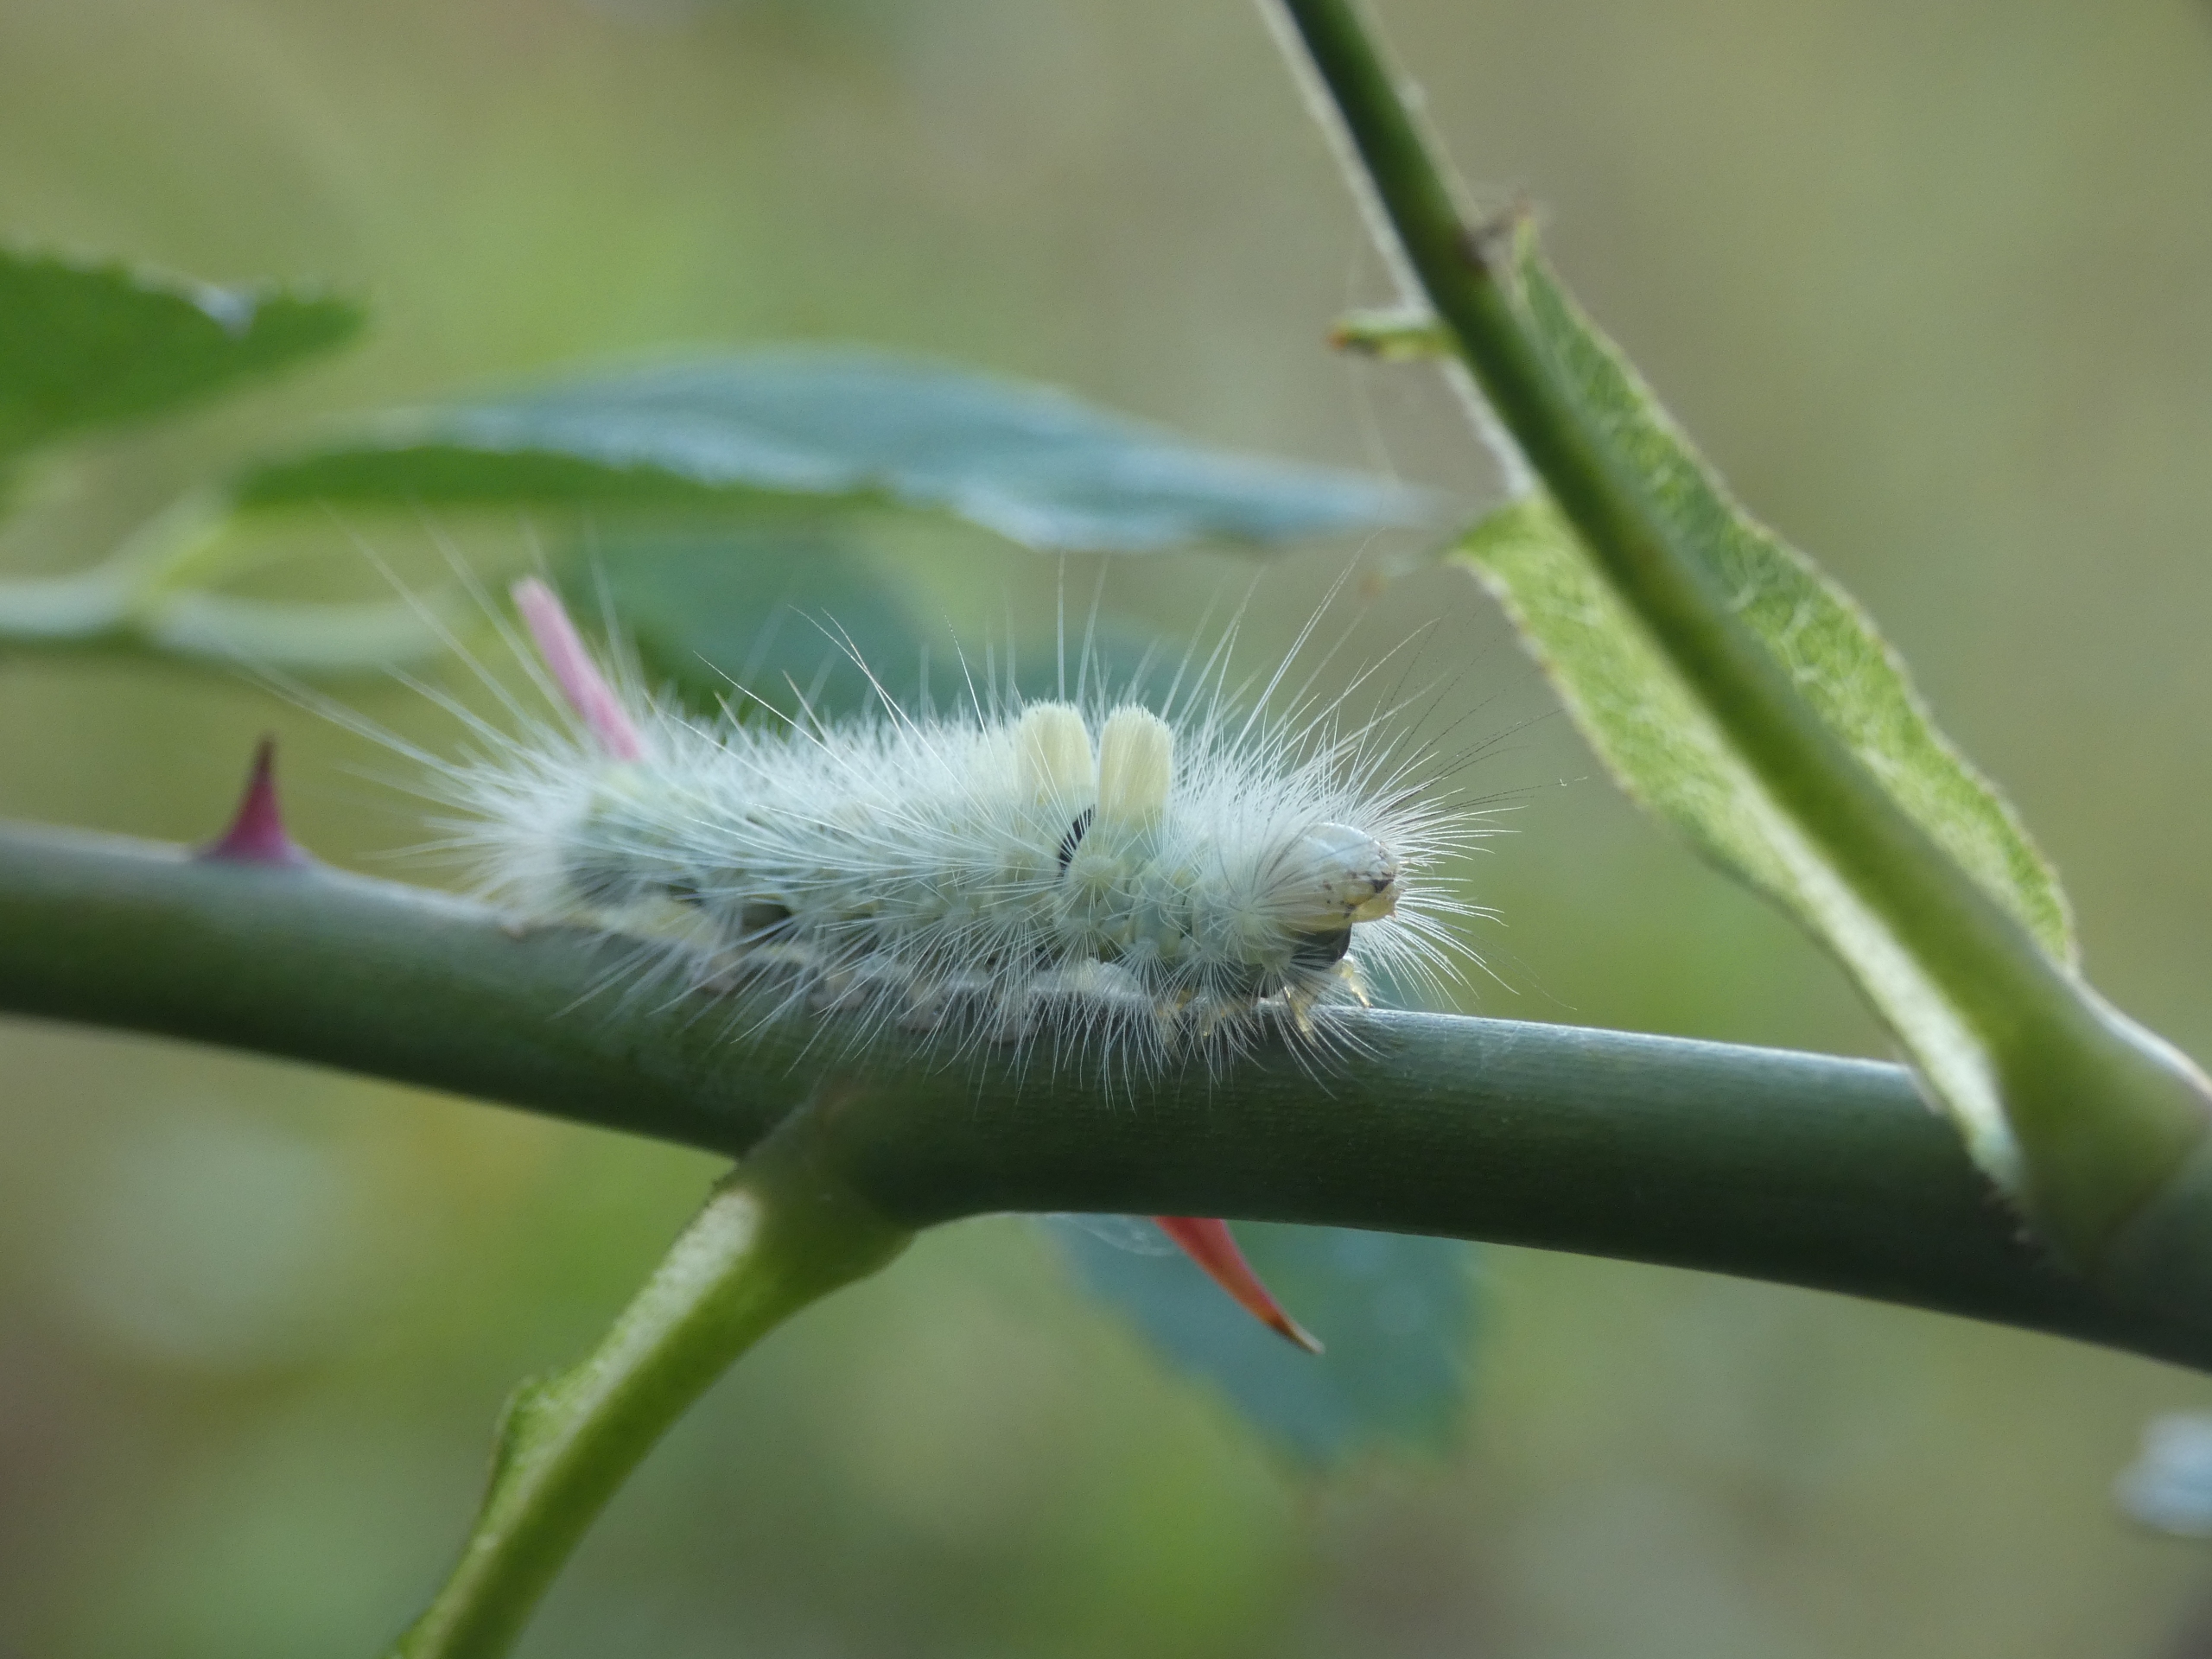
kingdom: Animalia
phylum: Arthropoda
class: Insecta
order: Lepidoptera
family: Erebidae
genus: Calliteara
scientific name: Calliteara pudibunda
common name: Bøgenonne
